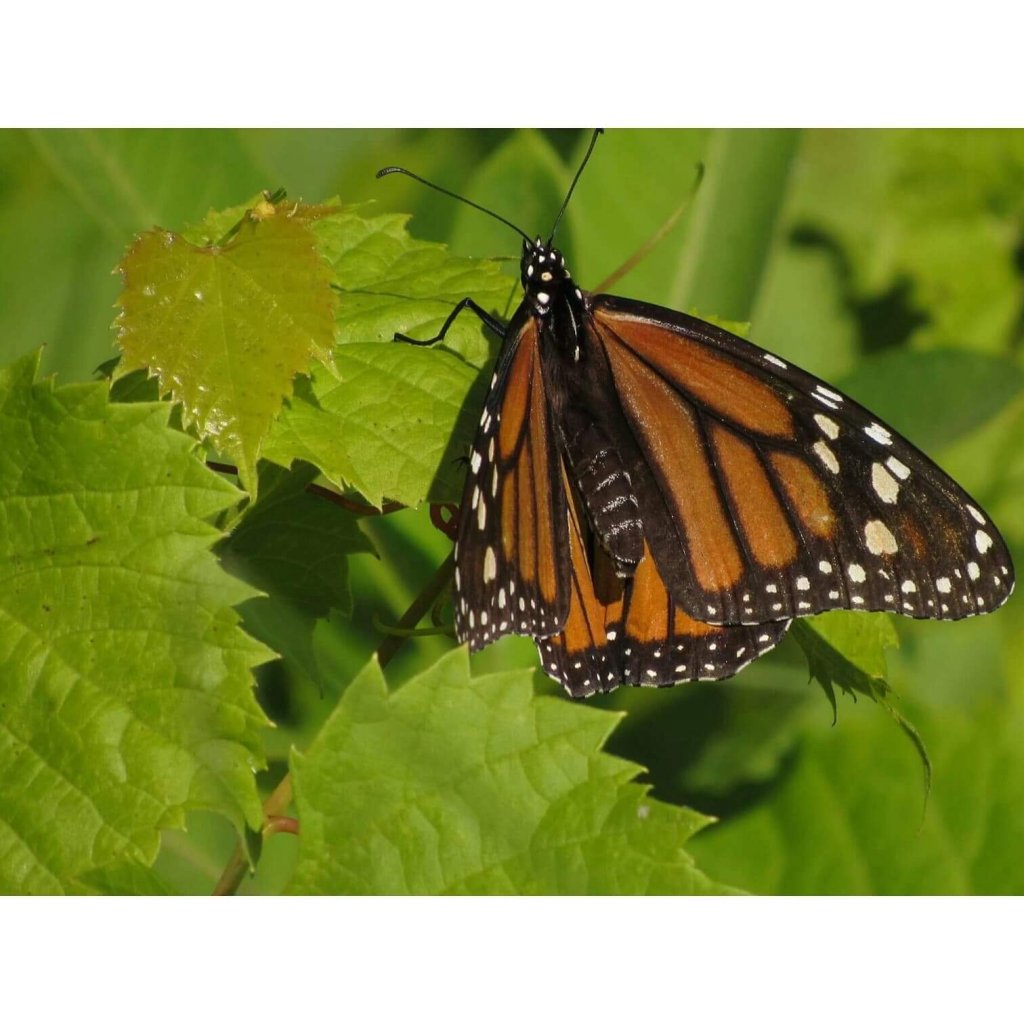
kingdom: Animalia
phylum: Arthropoda
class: Insecta
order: Lepidoptera
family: Nymphalidae
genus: Danaus
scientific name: Danaus plexippus
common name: Monarch
